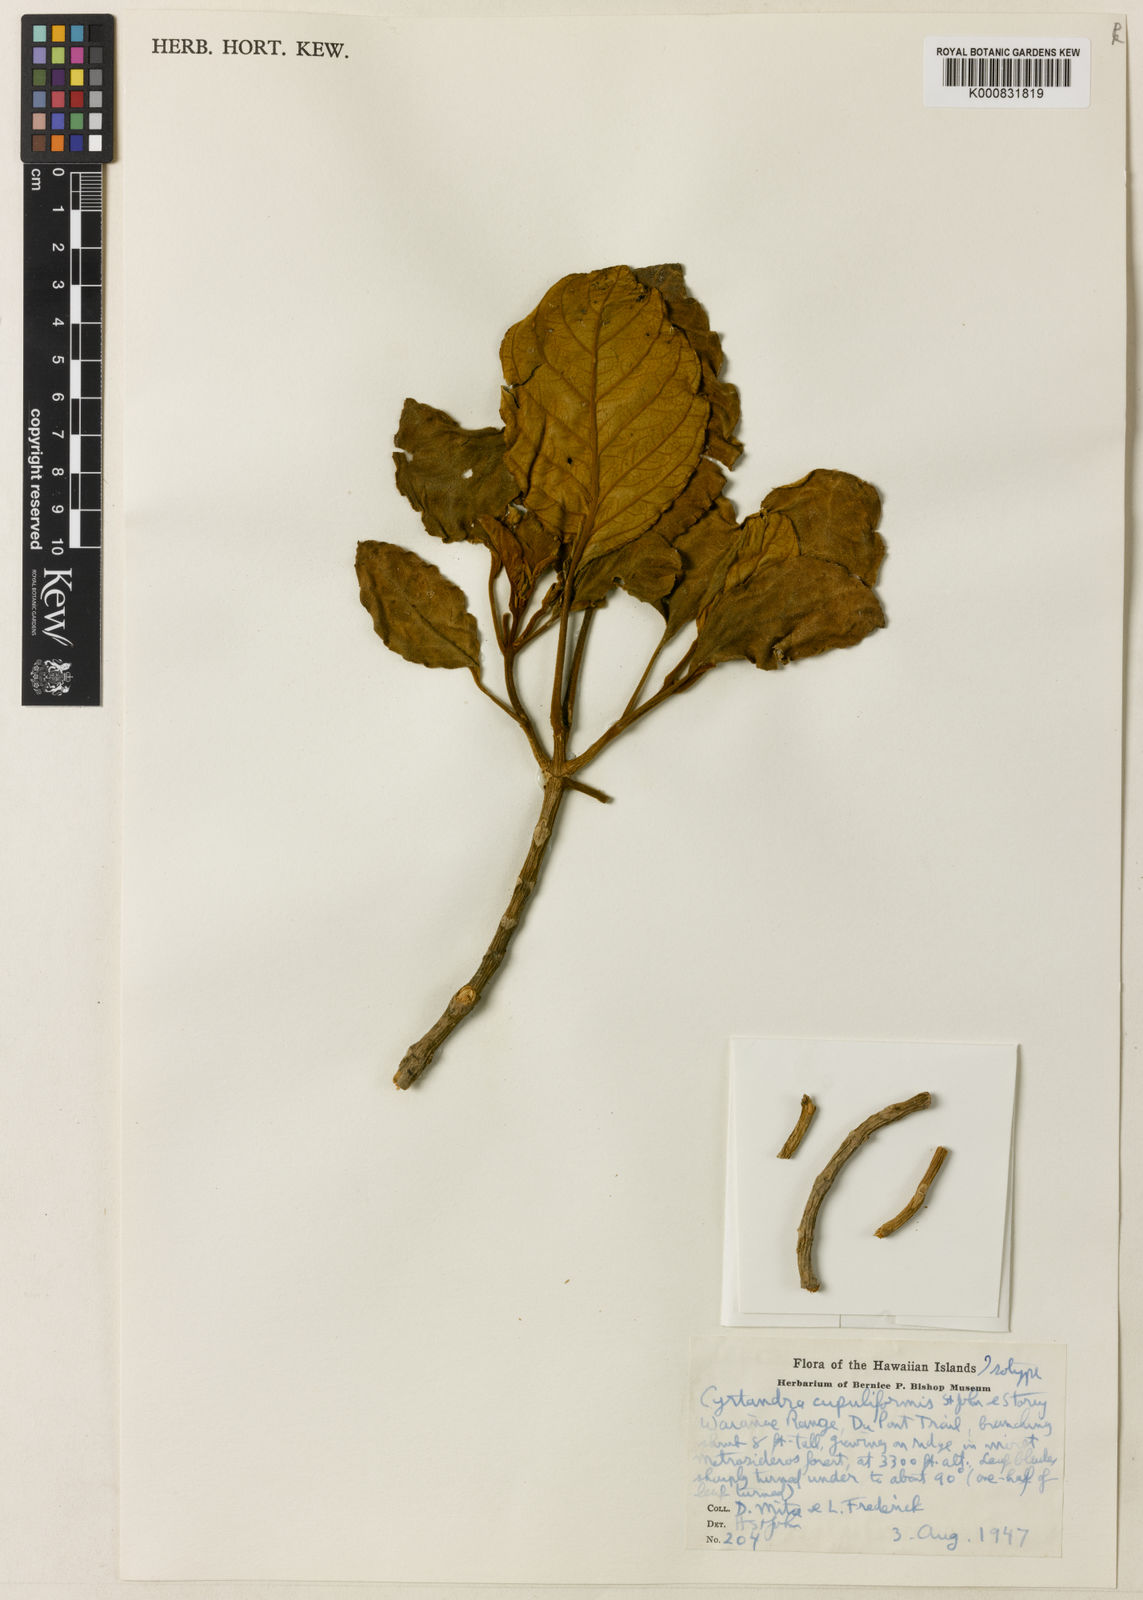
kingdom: Plantae
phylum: Tracheophyta
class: Magnoliopsida
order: Lamiales
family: Gesneriaceae
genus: Cyrtandra
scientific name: Cyrtandra cupuliformis
